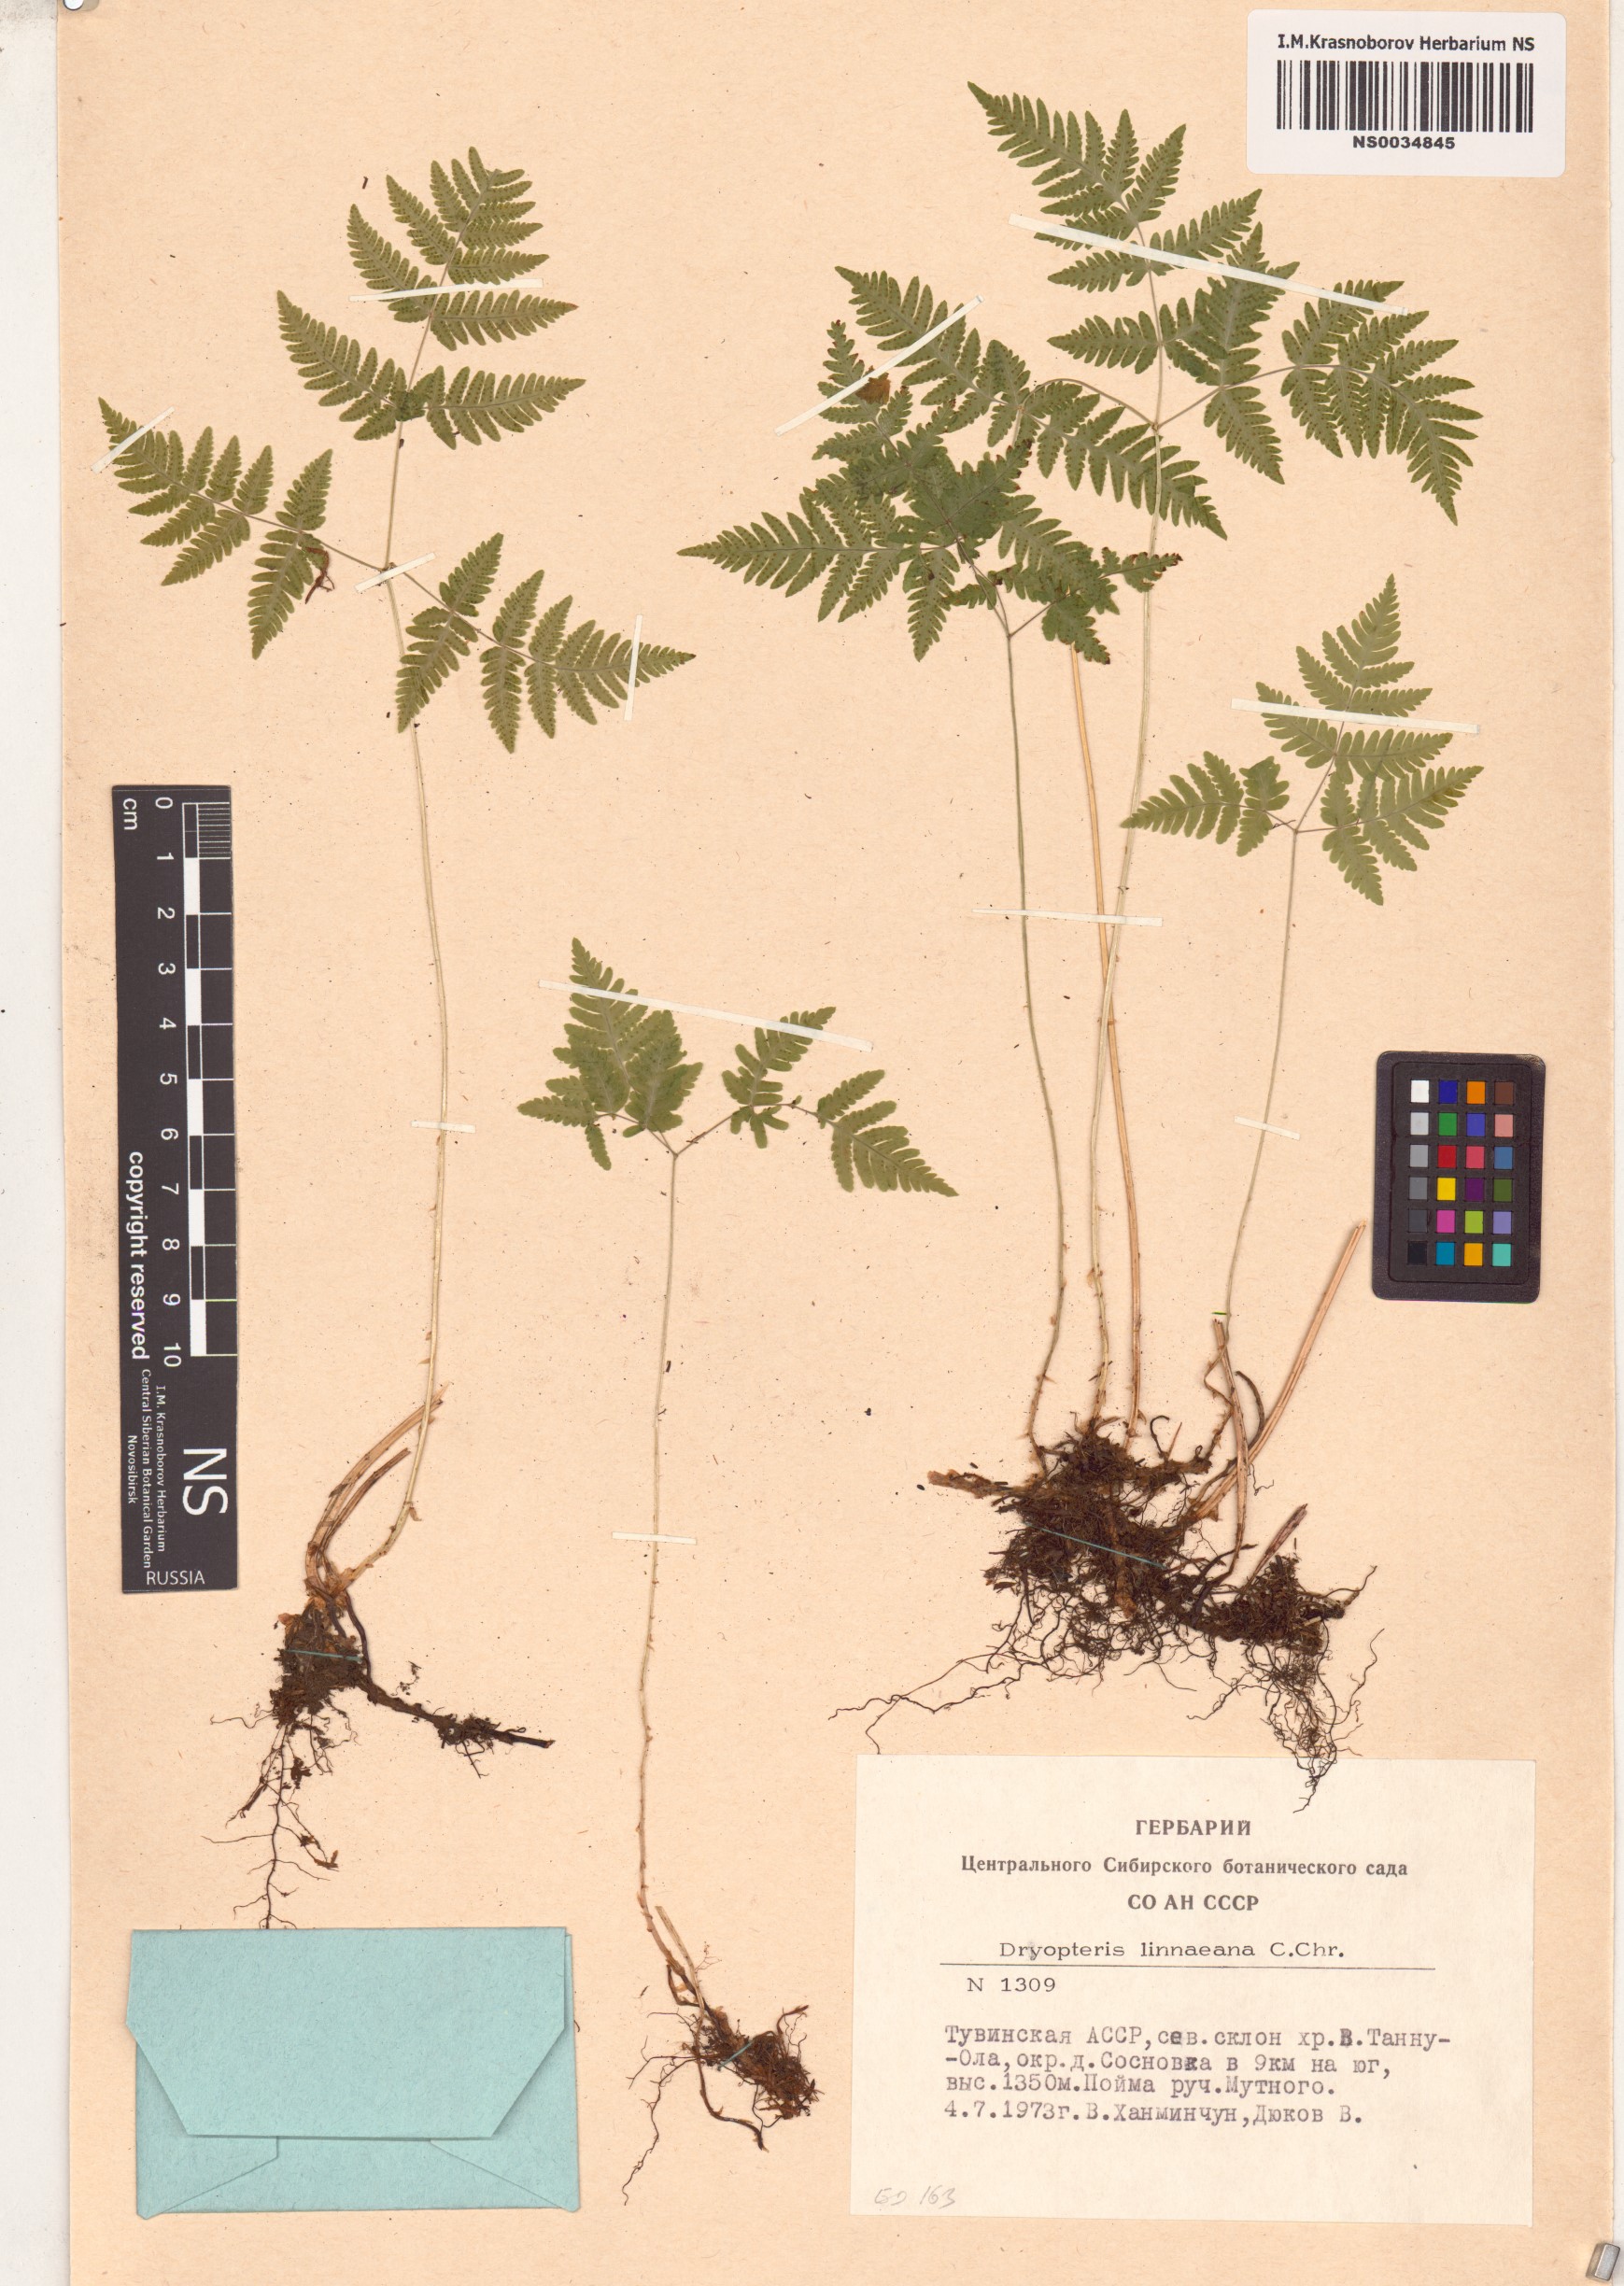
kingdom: Plantae
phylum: Tracheophyta
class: Polypodiopsida
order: Polypodiales
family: Cystopteridaceae
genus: Gymnocarpium
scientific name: Gymnocarpium dryopteris
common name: Oak fern
